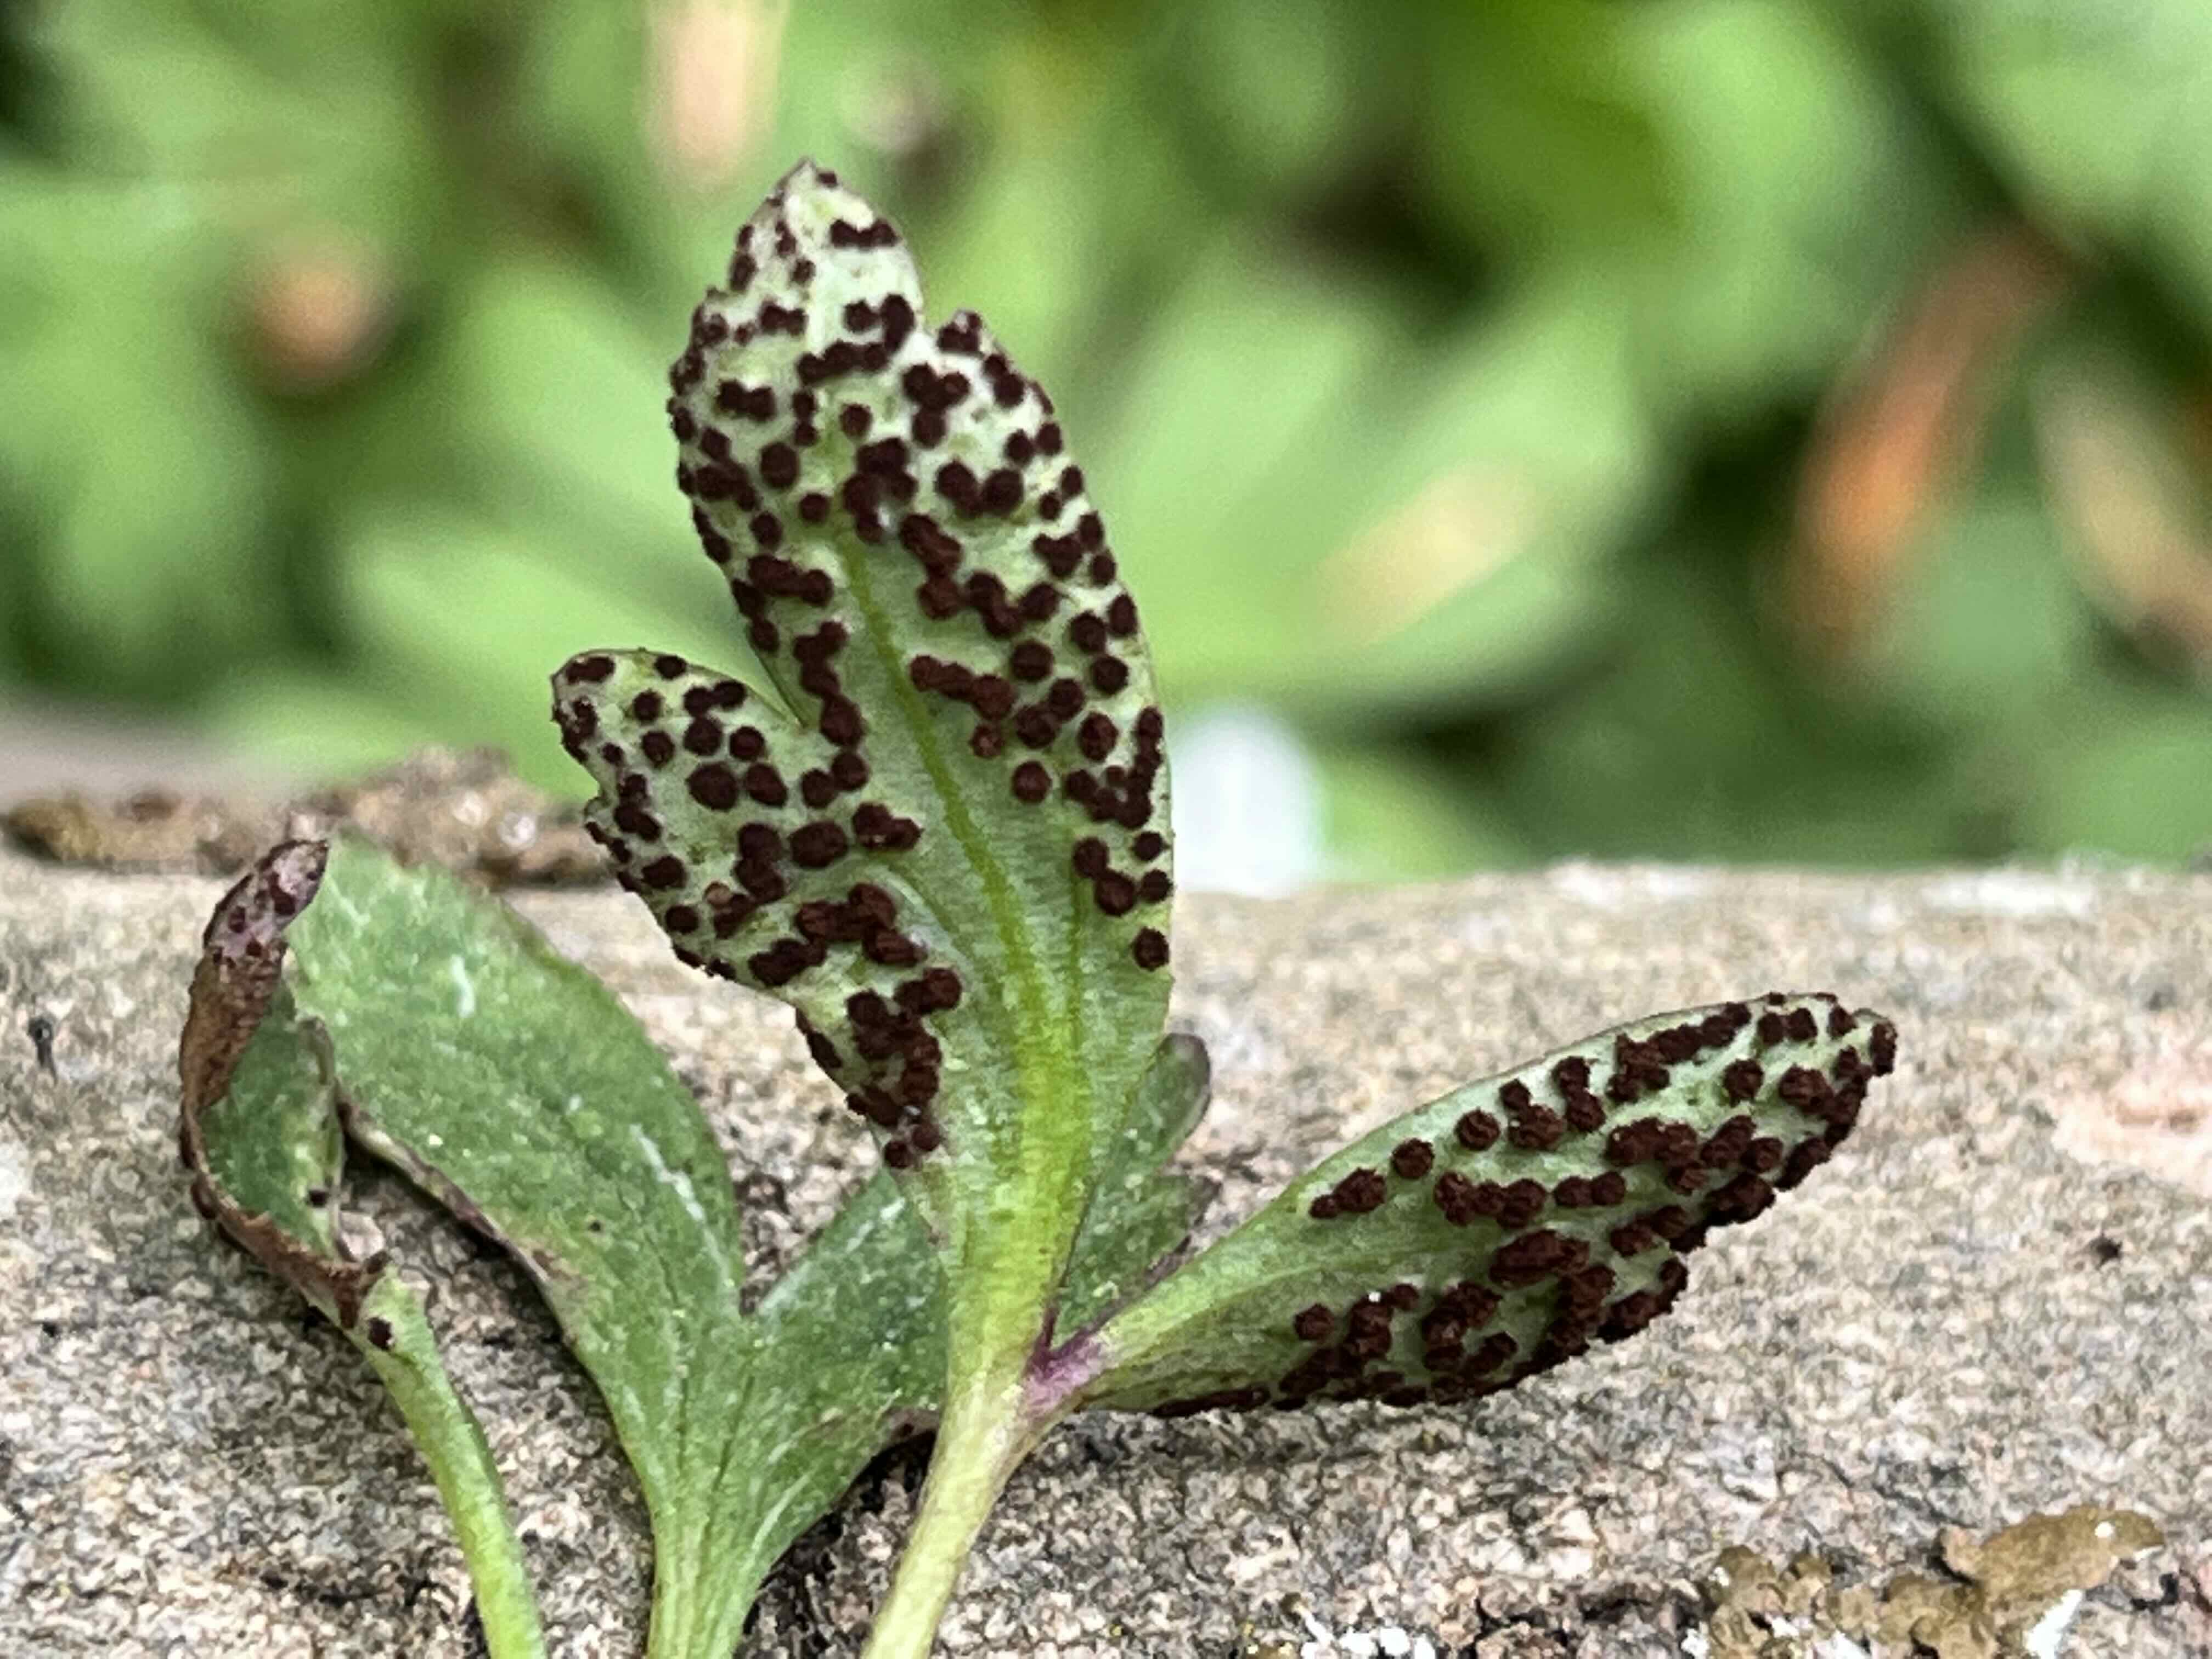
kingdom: Fungi
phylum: Basidiomycota
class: Pucciniomycetes
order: Pucciniales
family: Tranzscheliaceae
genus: Tranzschelia
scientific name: Tranzschelia anemones
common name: anemone-knæksporerust
